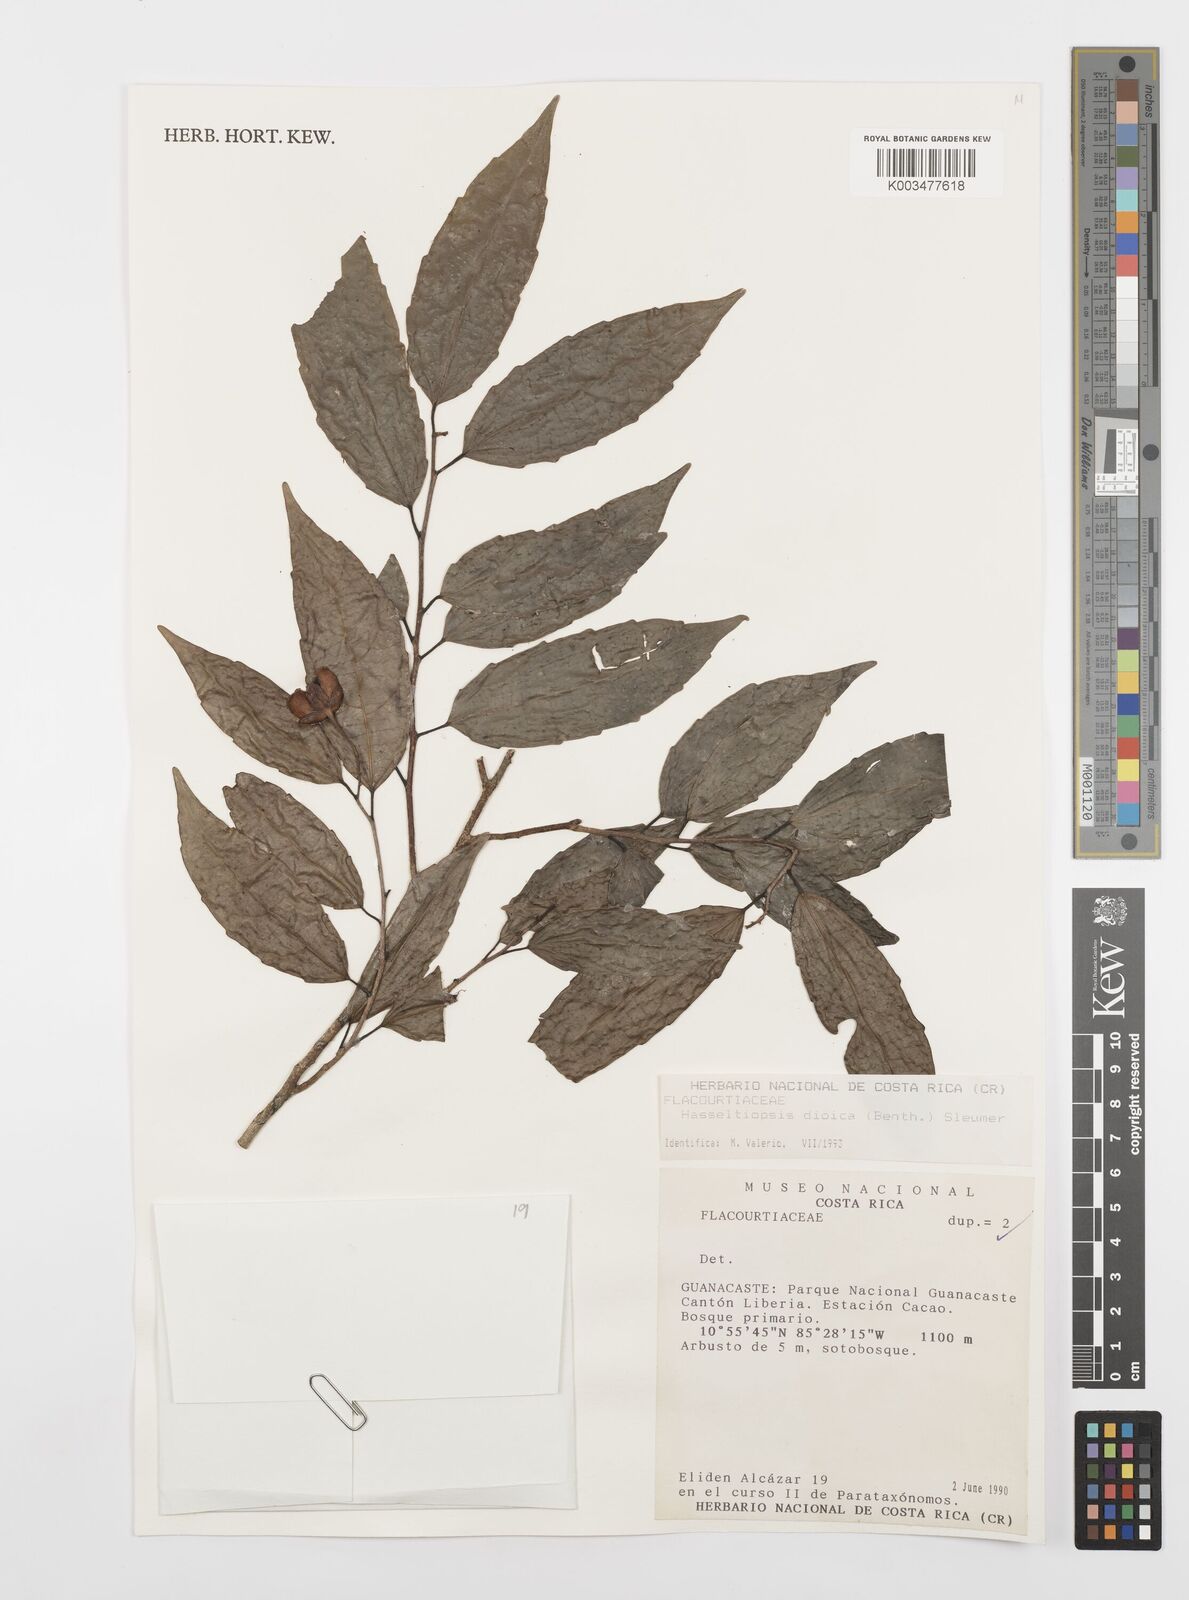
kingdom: Plantae
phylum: Tracheophyta
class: Magnoliopsida
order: Malpighiales
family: Salicaceae
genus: Hasseltiopsis
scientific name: Hasseltiopsis dioica
